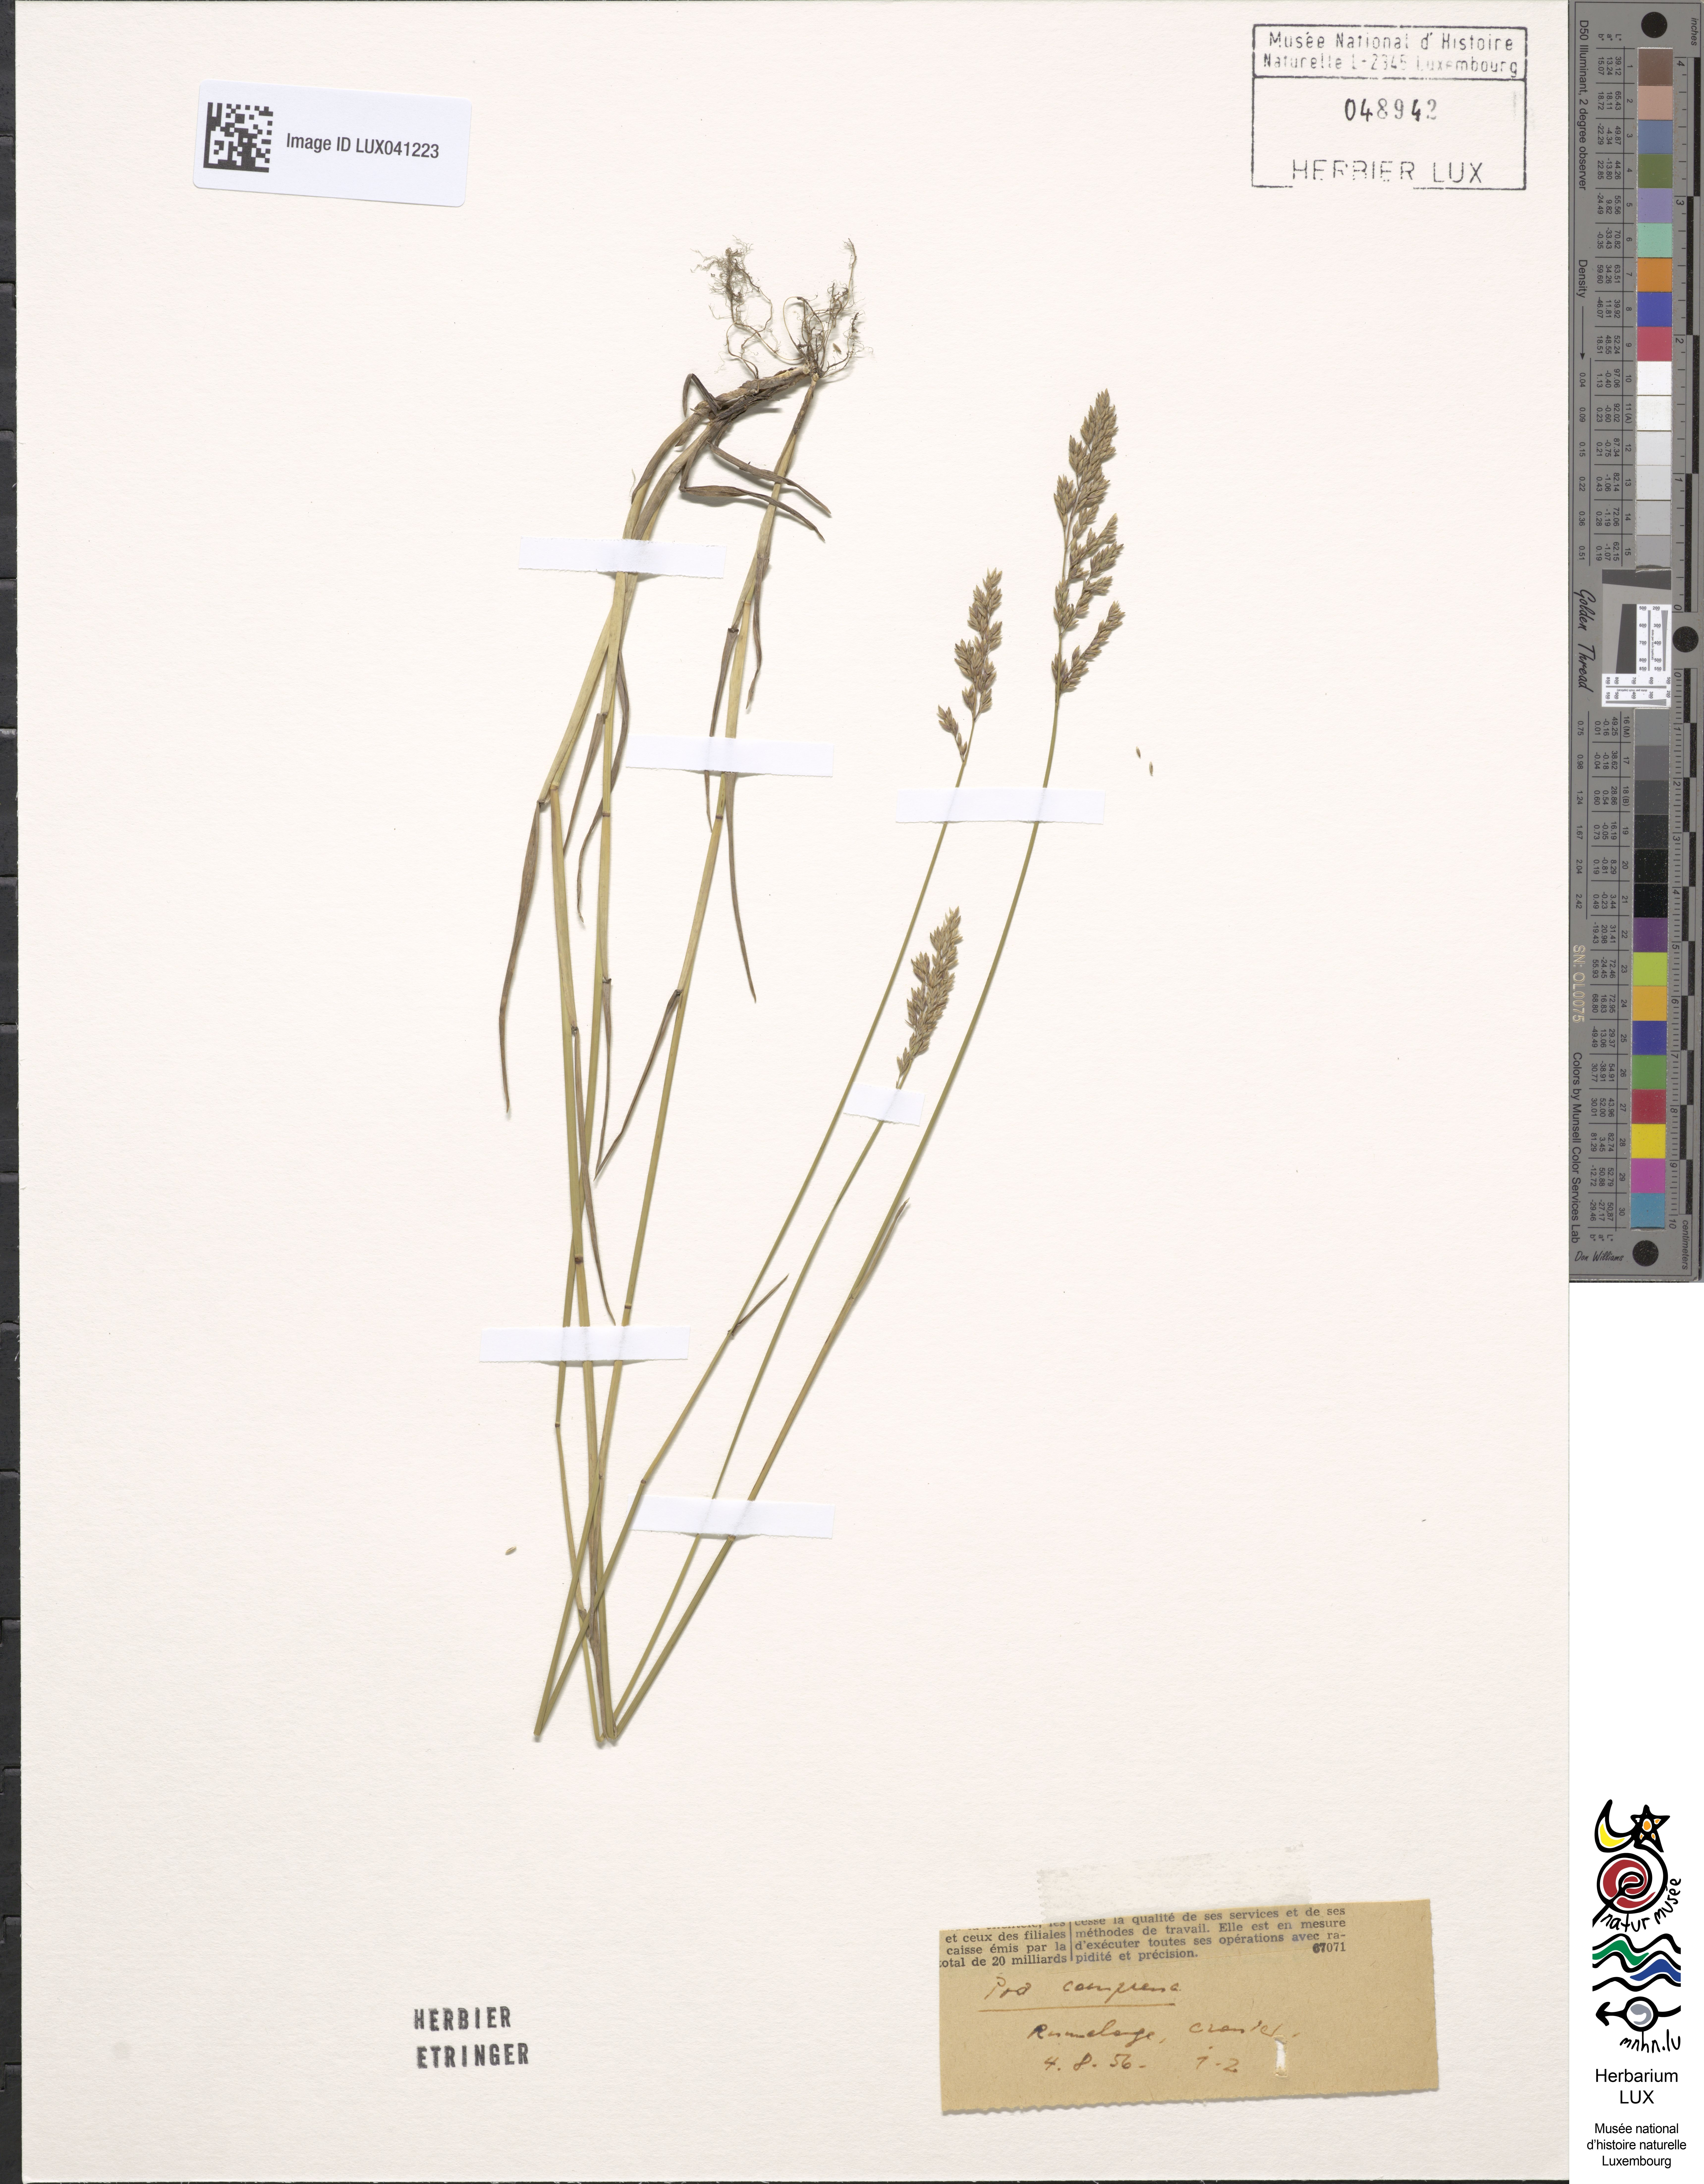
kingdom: Plantae
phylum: Tracheophyta
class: Liliopsida
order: Poales
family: Poaceae
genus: Poa
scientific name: Poa compressa
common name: Canada bluegrass
